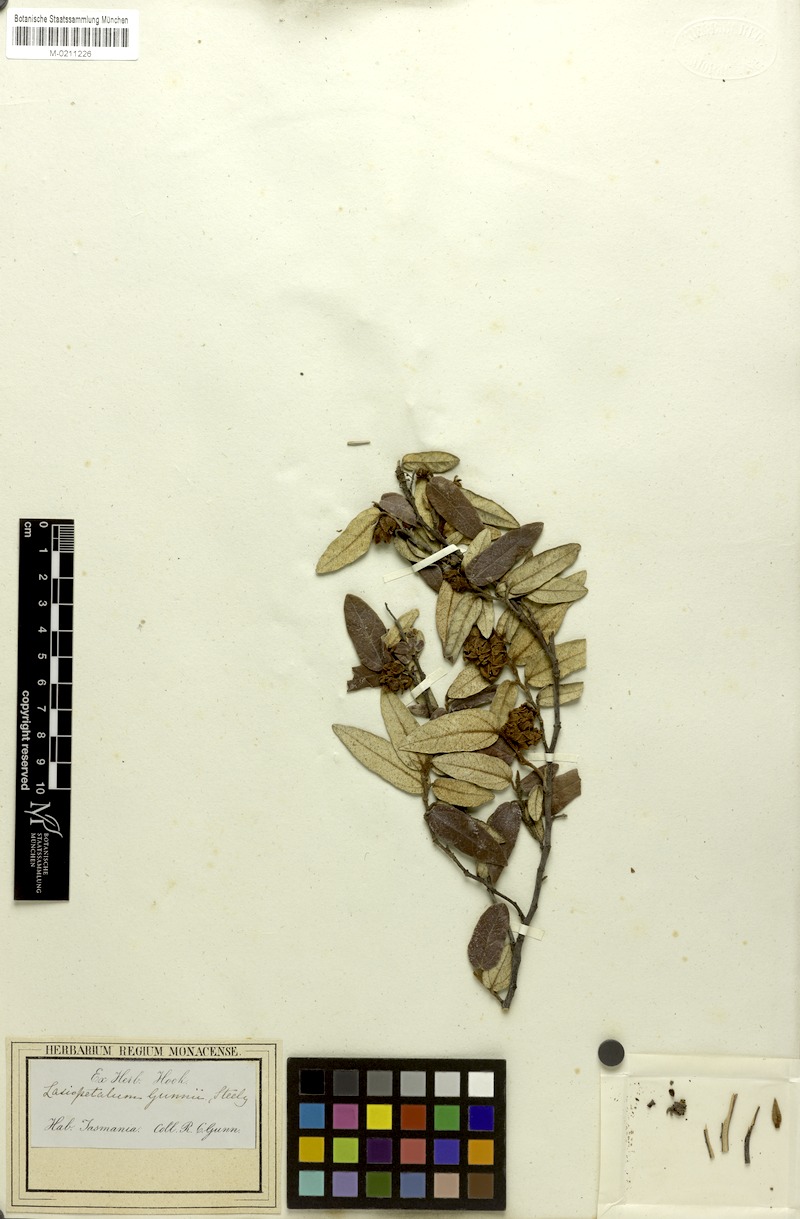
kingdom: Plantae
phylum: Tracheophyta
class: Magnoliopsida
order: Malvales
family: Malvaceae
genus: Lasiopetalum
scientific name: Lasiopetalum macrophyllum
